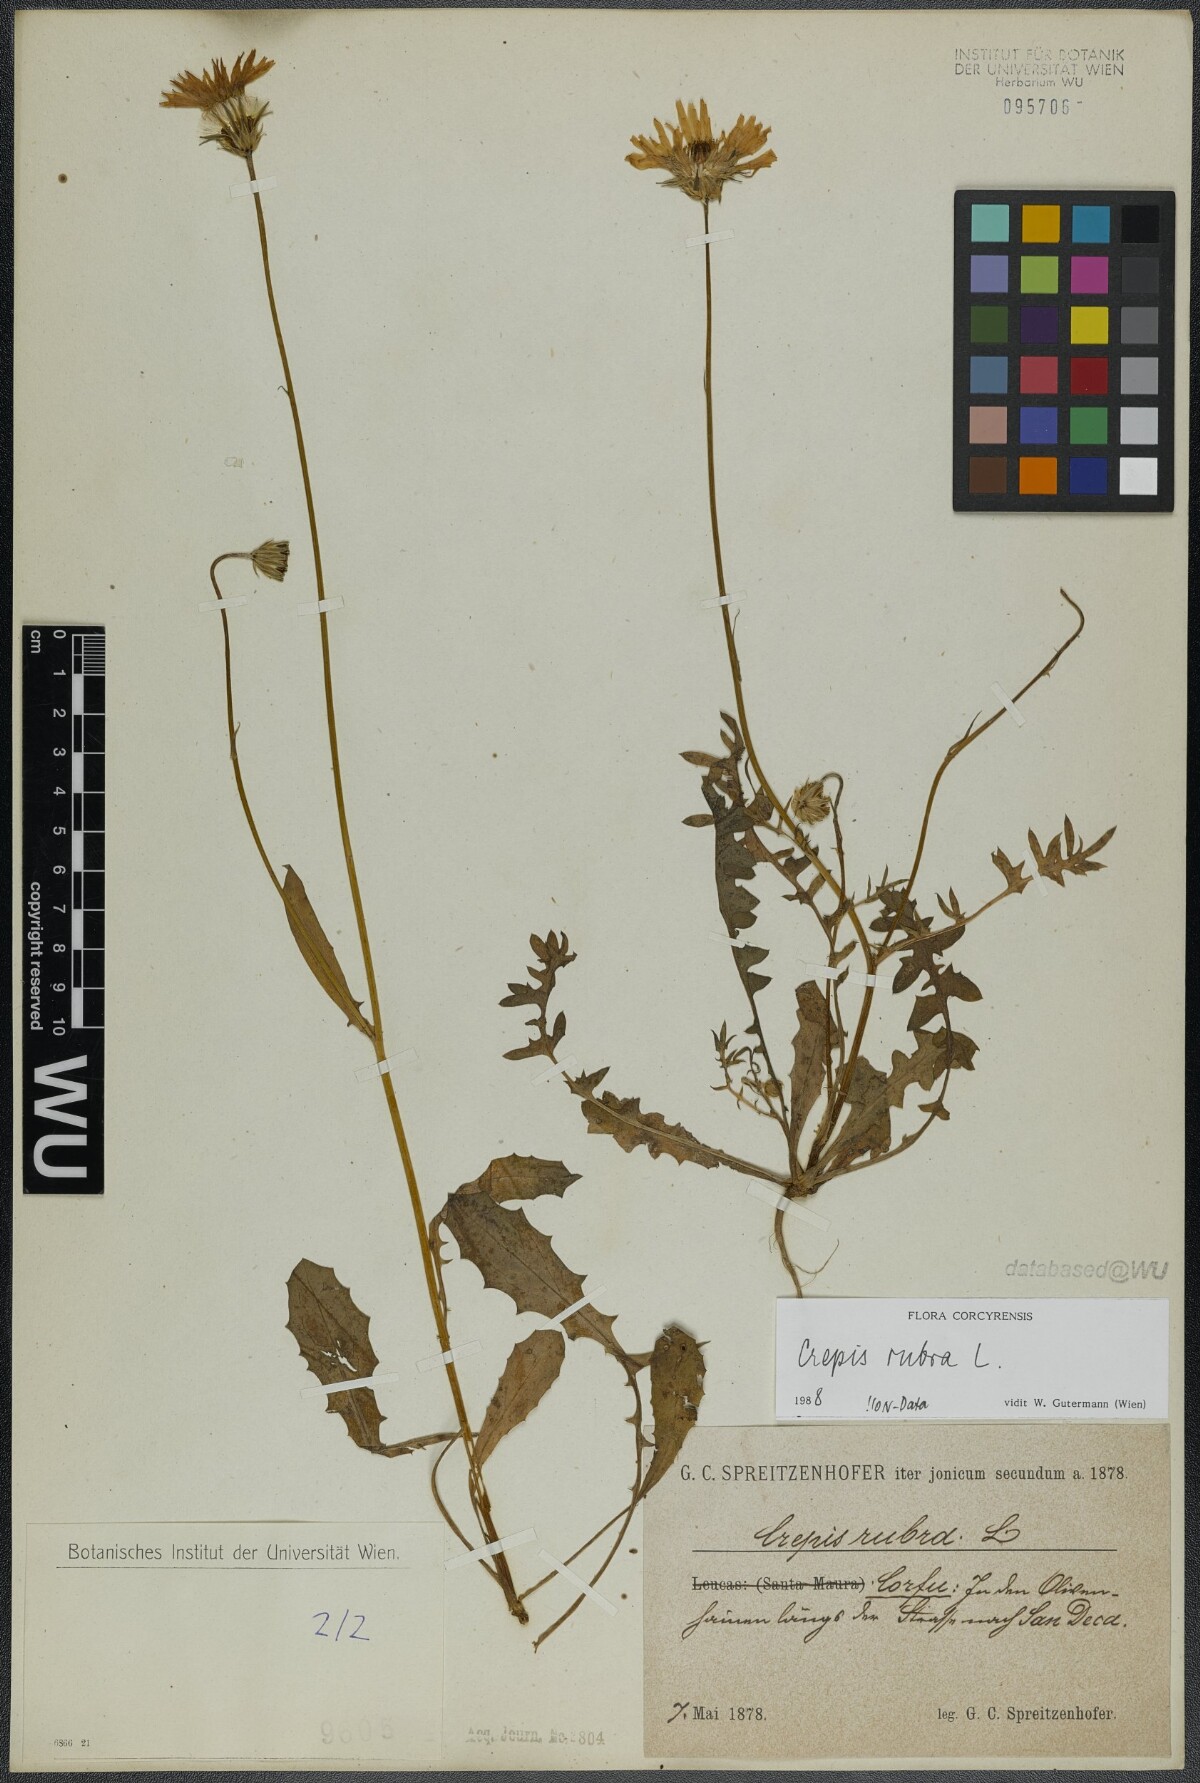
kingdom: Plantae
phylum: Tracheophyta
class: Magnoliopsida
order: Asterales
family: Asteraceae
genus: Crepis
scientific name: Crepis rubra
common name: Pink hawk's-beard
